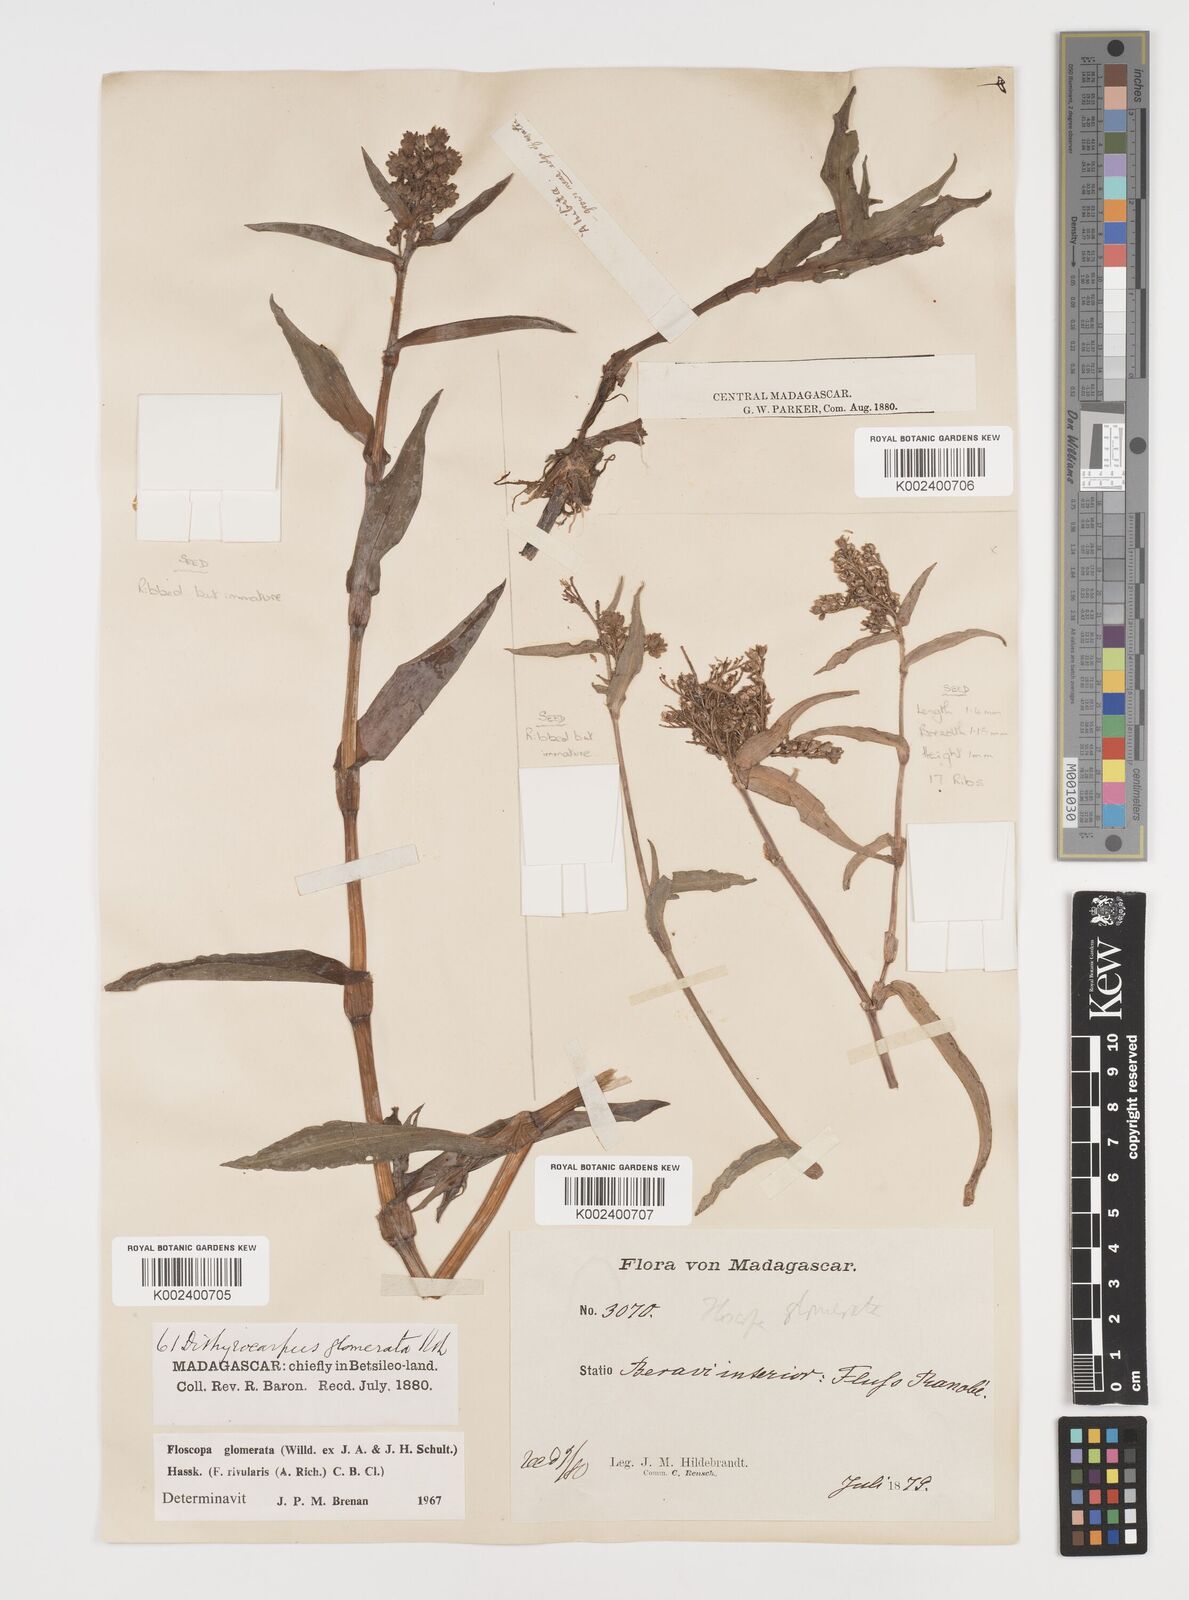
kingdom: Plantae
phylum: Tracheophyta
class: Liliopsida
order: Commelinales
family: Commelinaceae
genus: Floscopa
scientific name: Floscopa glomerata
